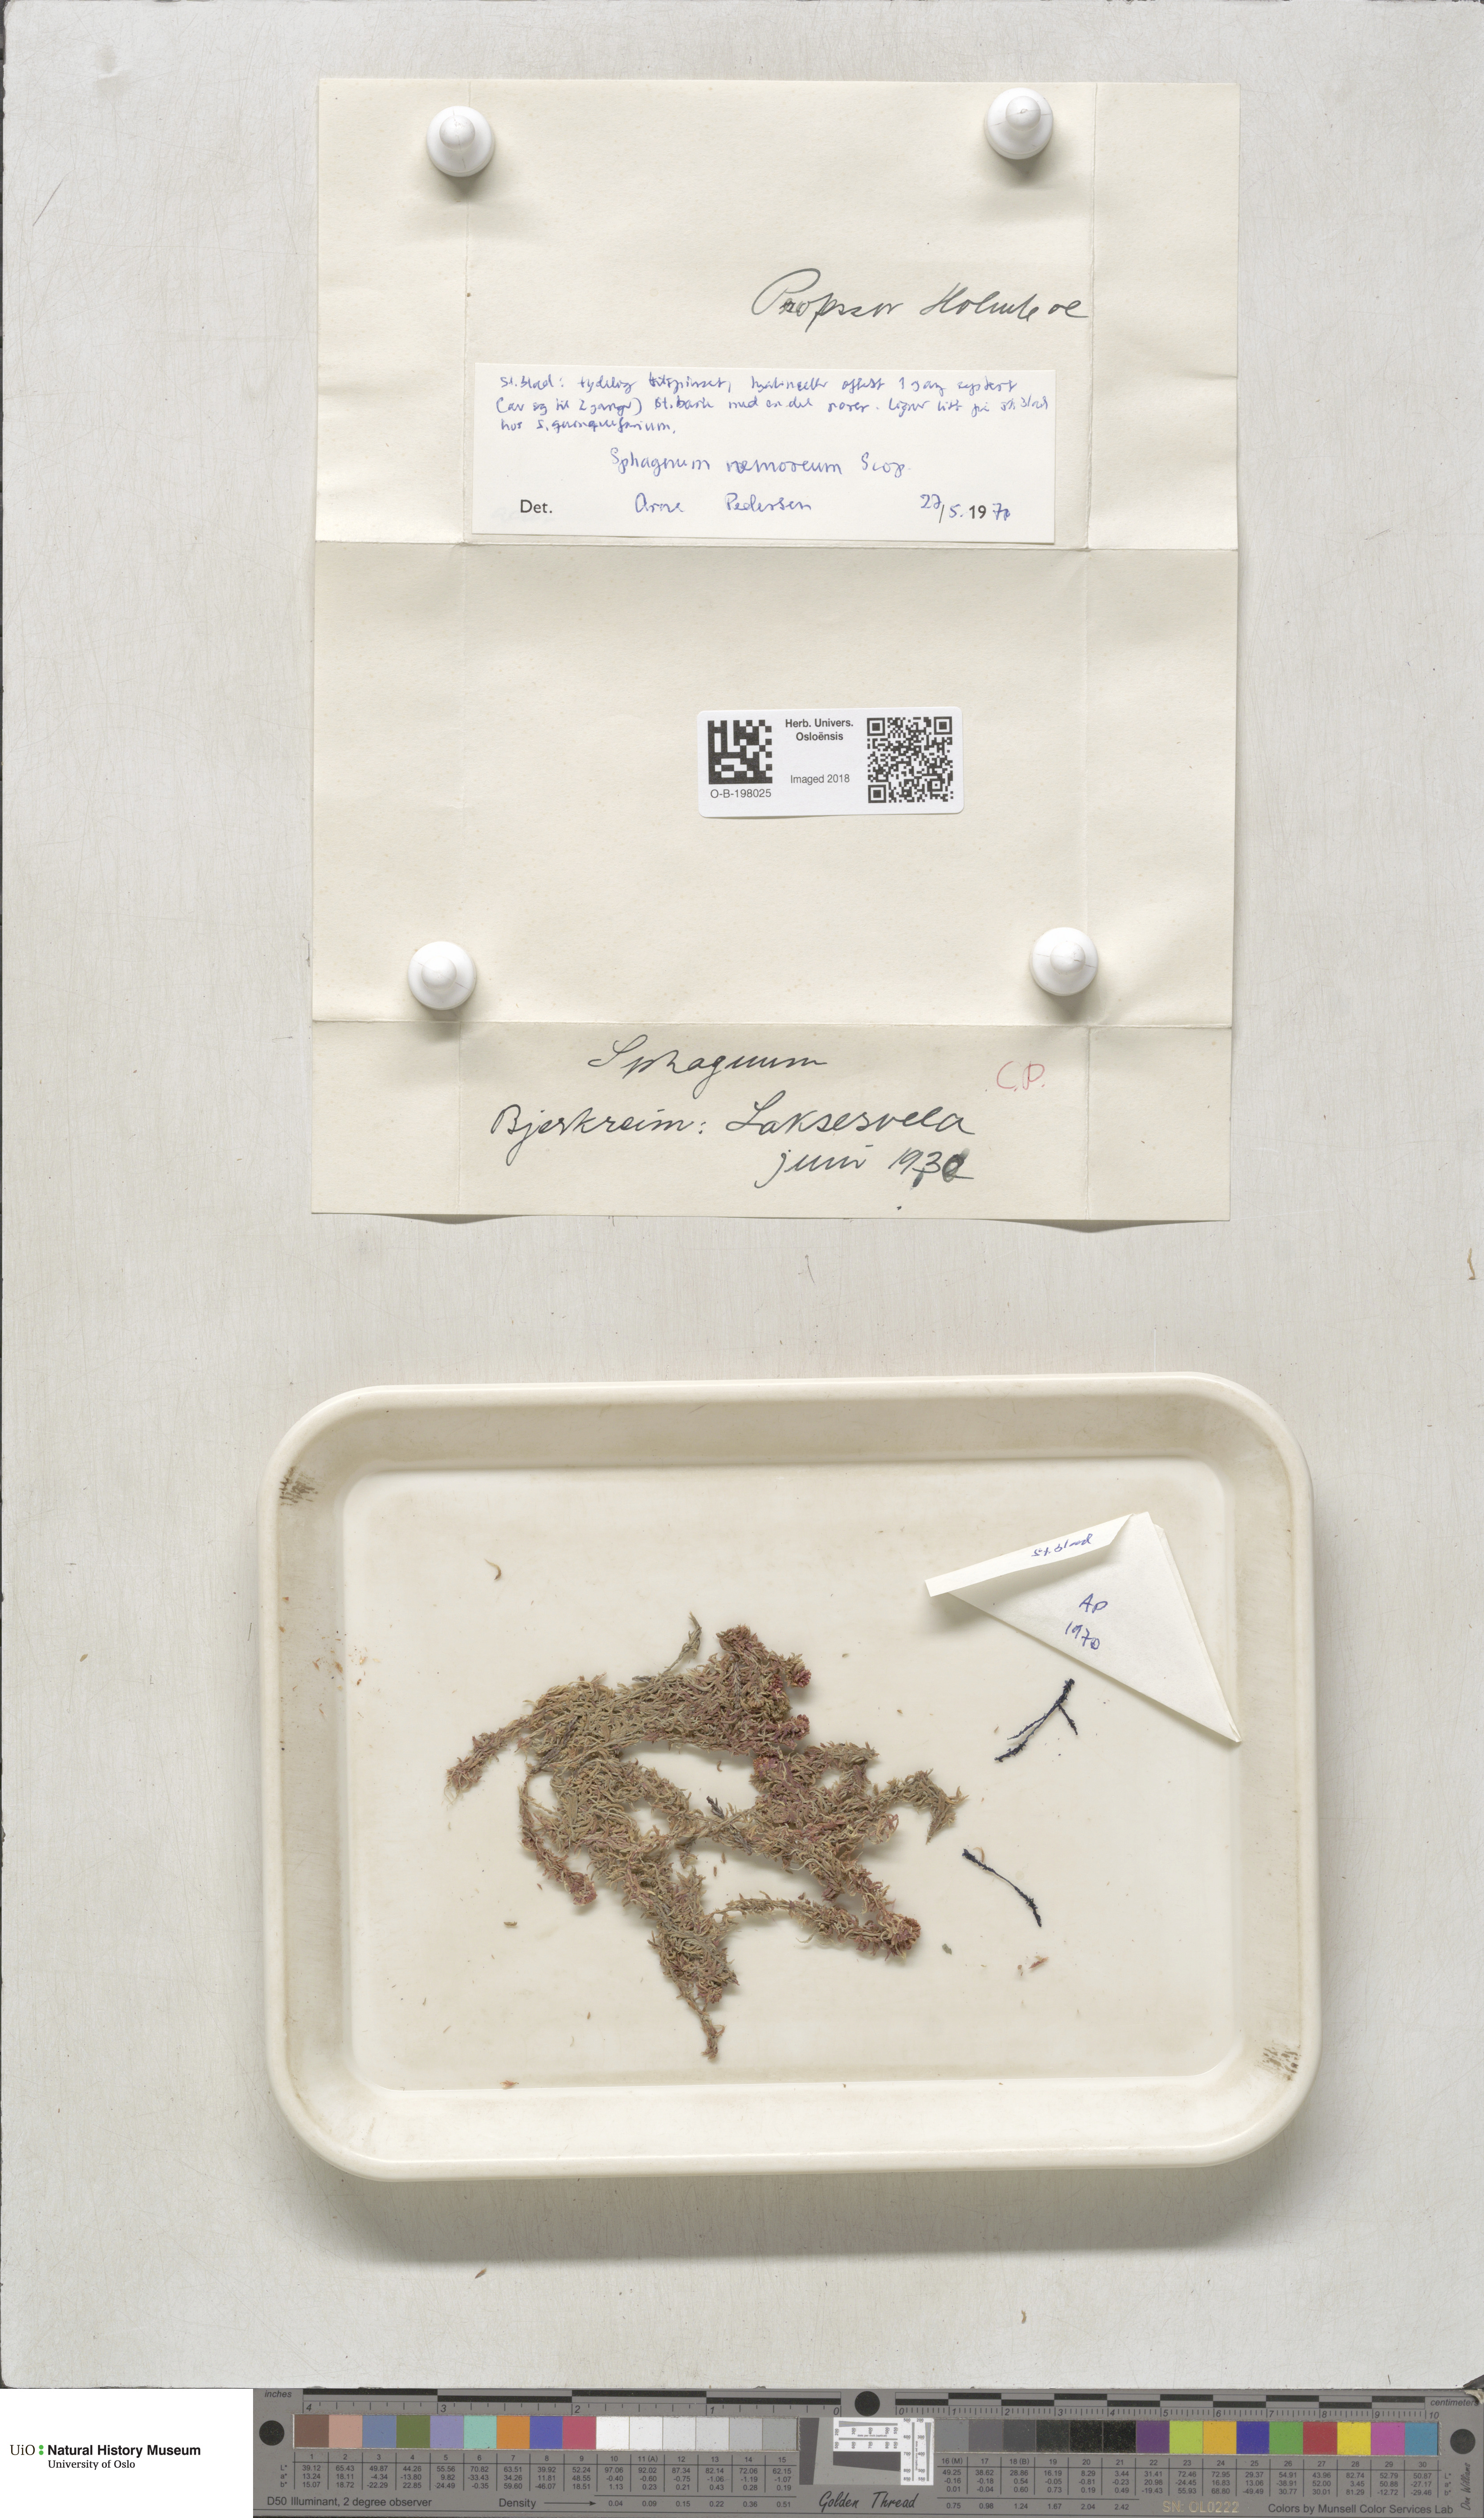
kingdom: Plantae
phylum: Bryophyta
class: Sphagnopsida
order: Sphagnales
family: Sphagnaceae
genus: Sphagnum
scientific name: Sphagnum capillifolium
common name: Small red peat moss
